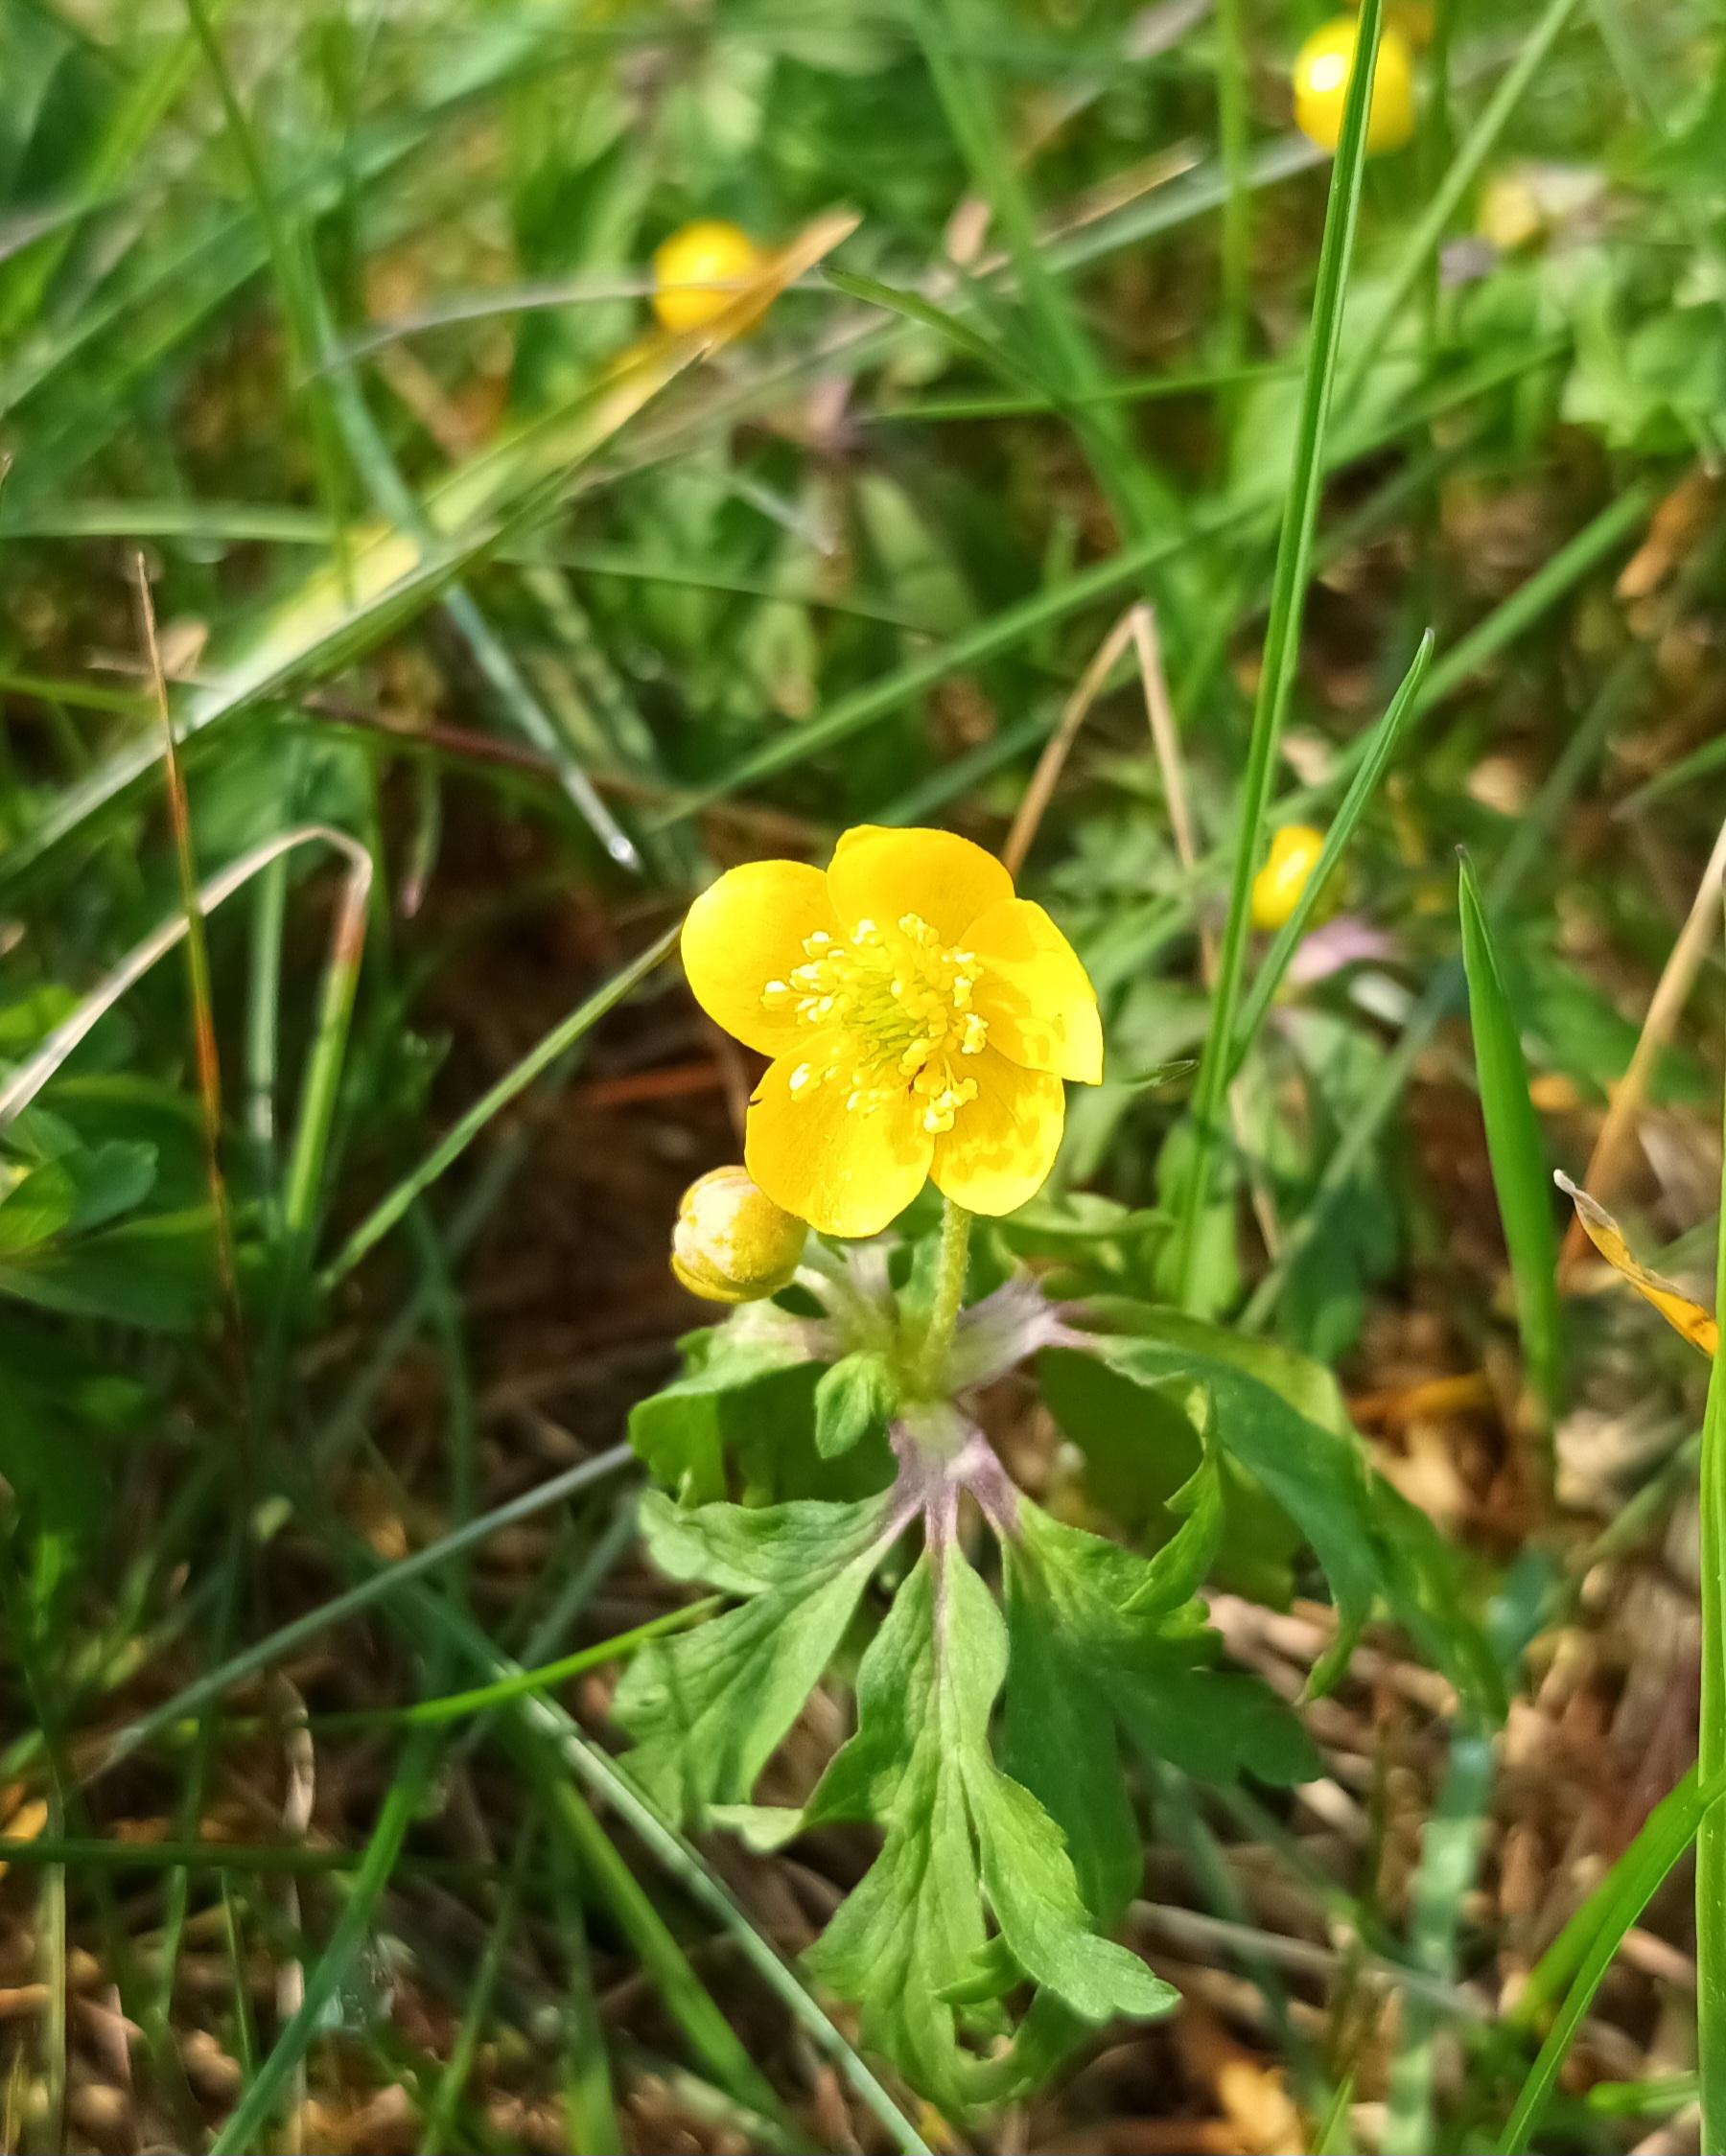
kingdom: Plantae
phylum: Tracheophyta
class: Magnoliopsida
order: Ranunculales
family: Ranunculaceae
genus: Anemone
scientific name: Anemone ranunculoides
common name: Gul anemone
